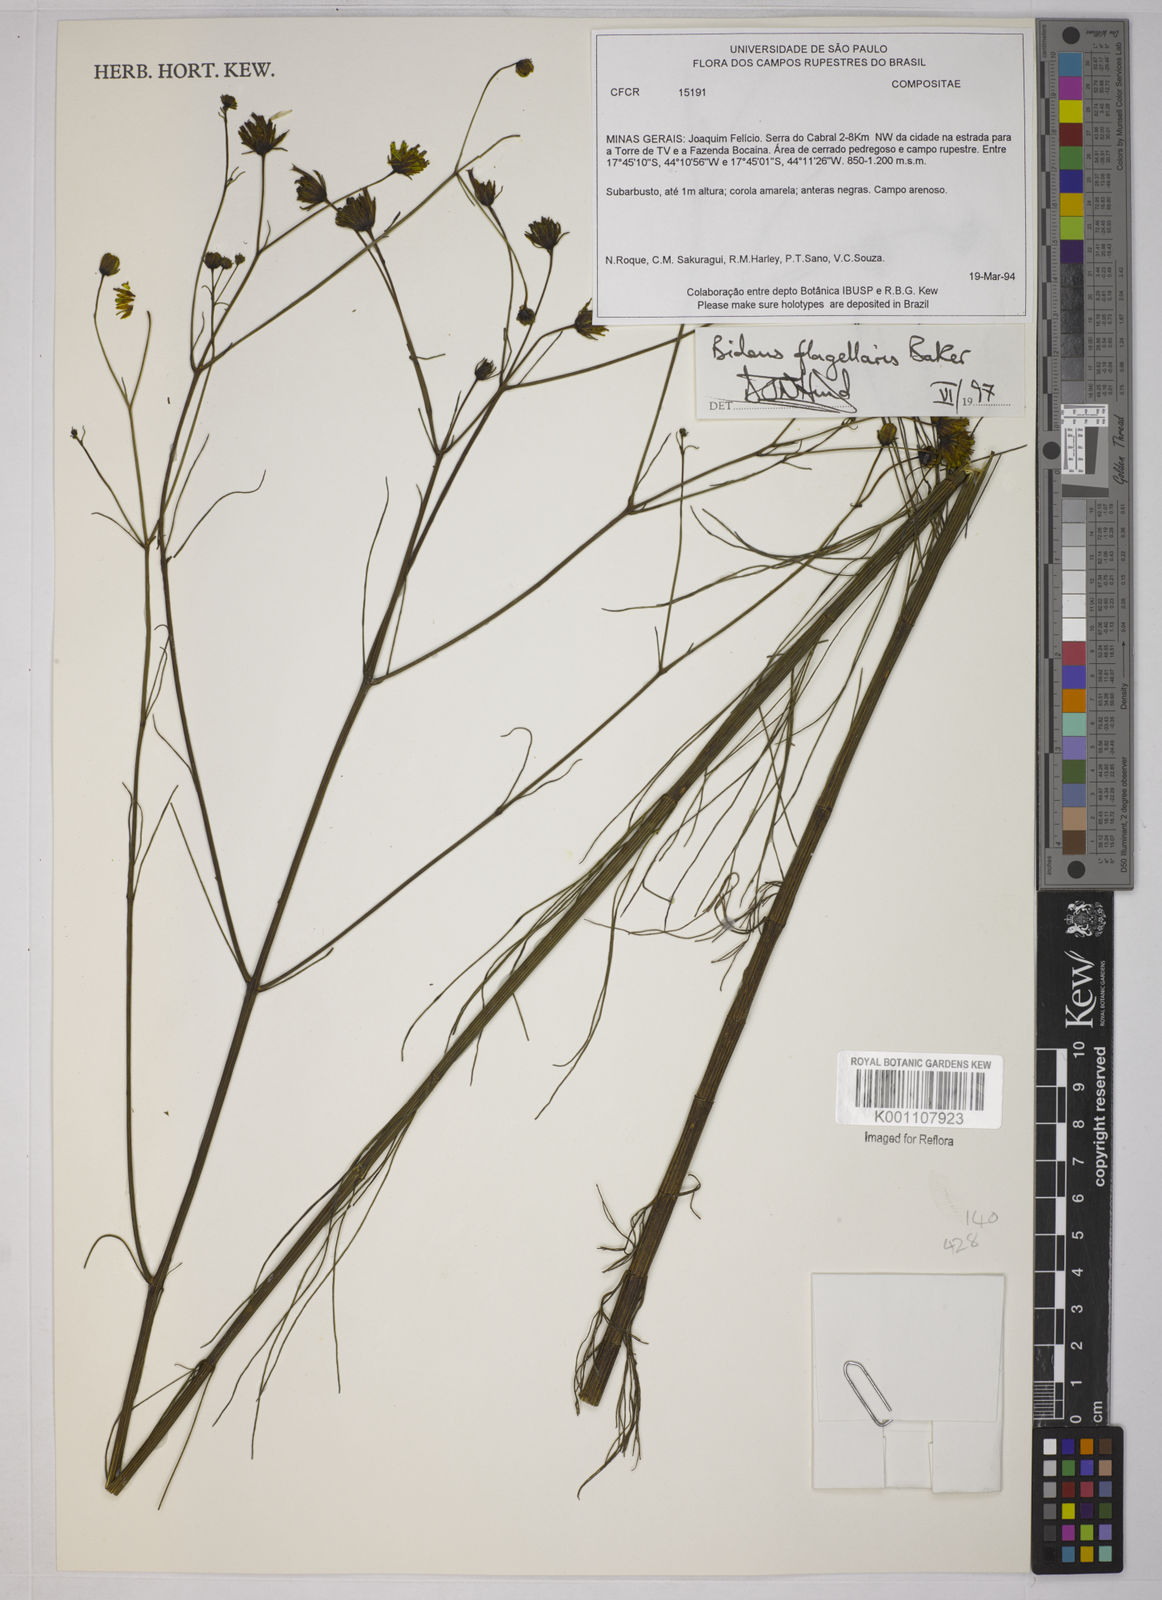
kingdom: Plantae
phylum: Tracheophyta
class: Magnoliopsida
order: Asterales
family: Asteraceae
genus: Bidens
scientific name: Bidens flagellaris
